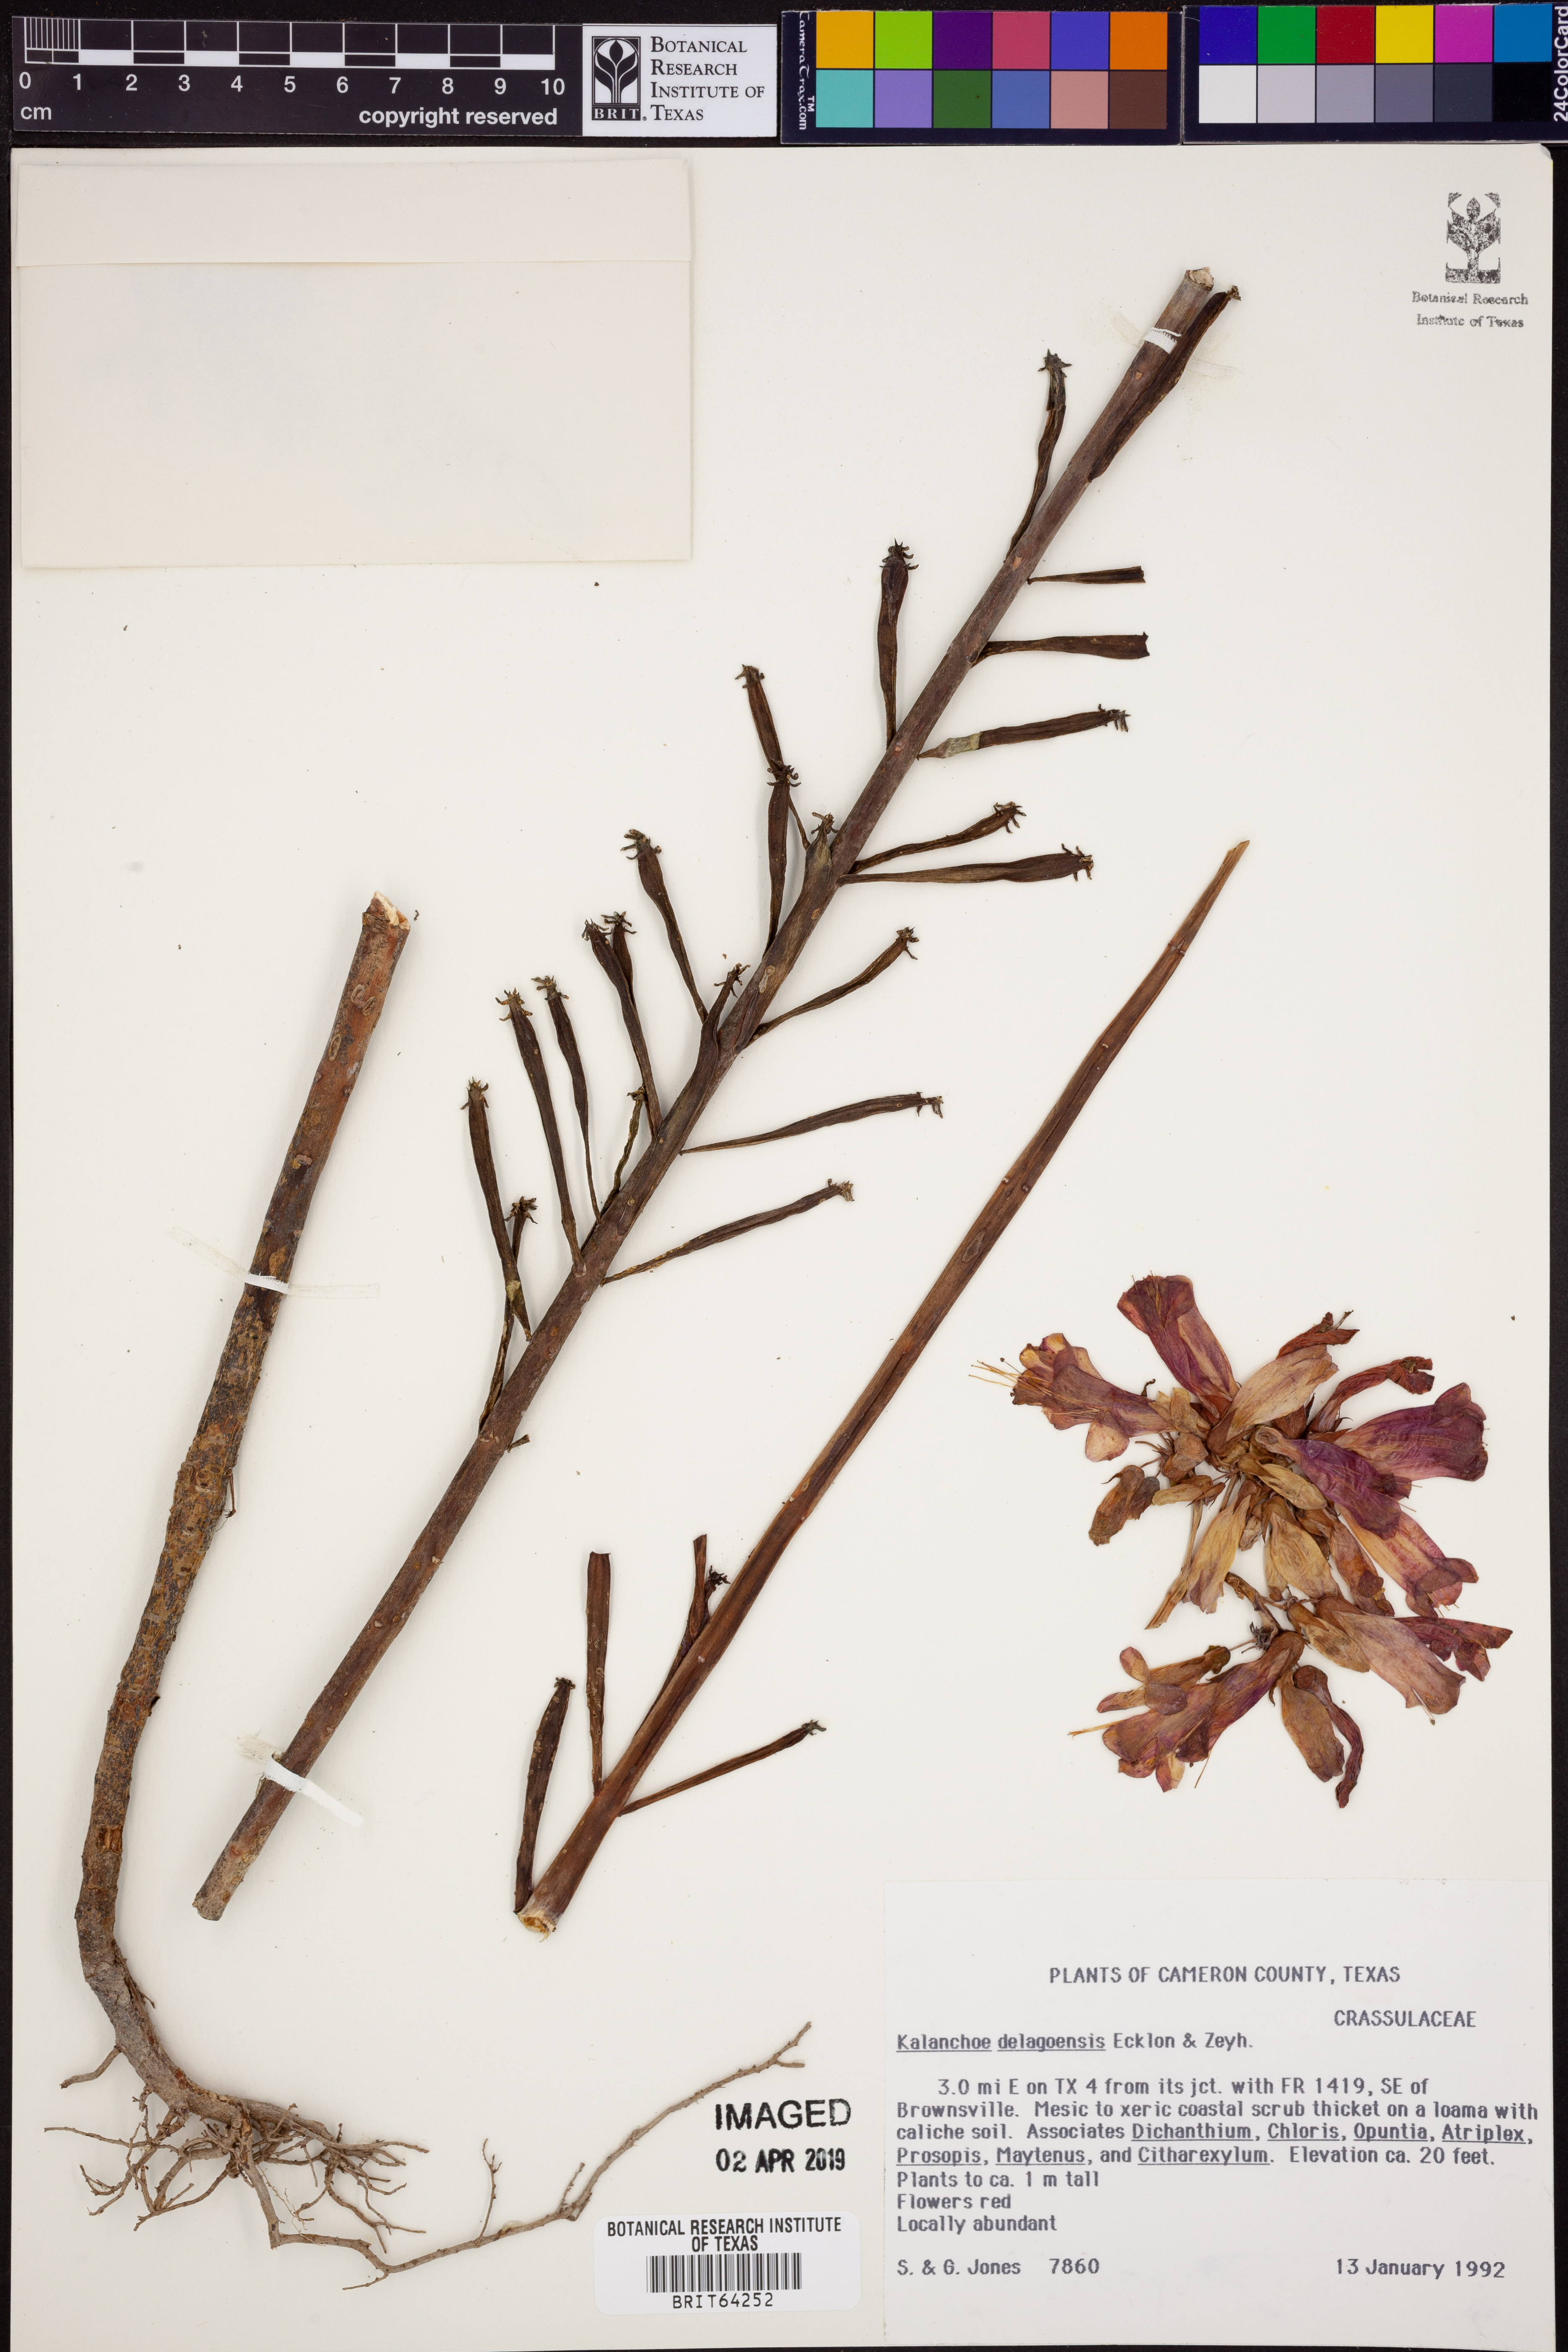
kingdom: Plantae
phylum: Tracheophyta
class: Magnoliopsida
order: Saxifragales
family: Crassulaceae
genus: Kalanchoe
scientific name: Kalanchoe delagoensis
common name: Chandelier plant
